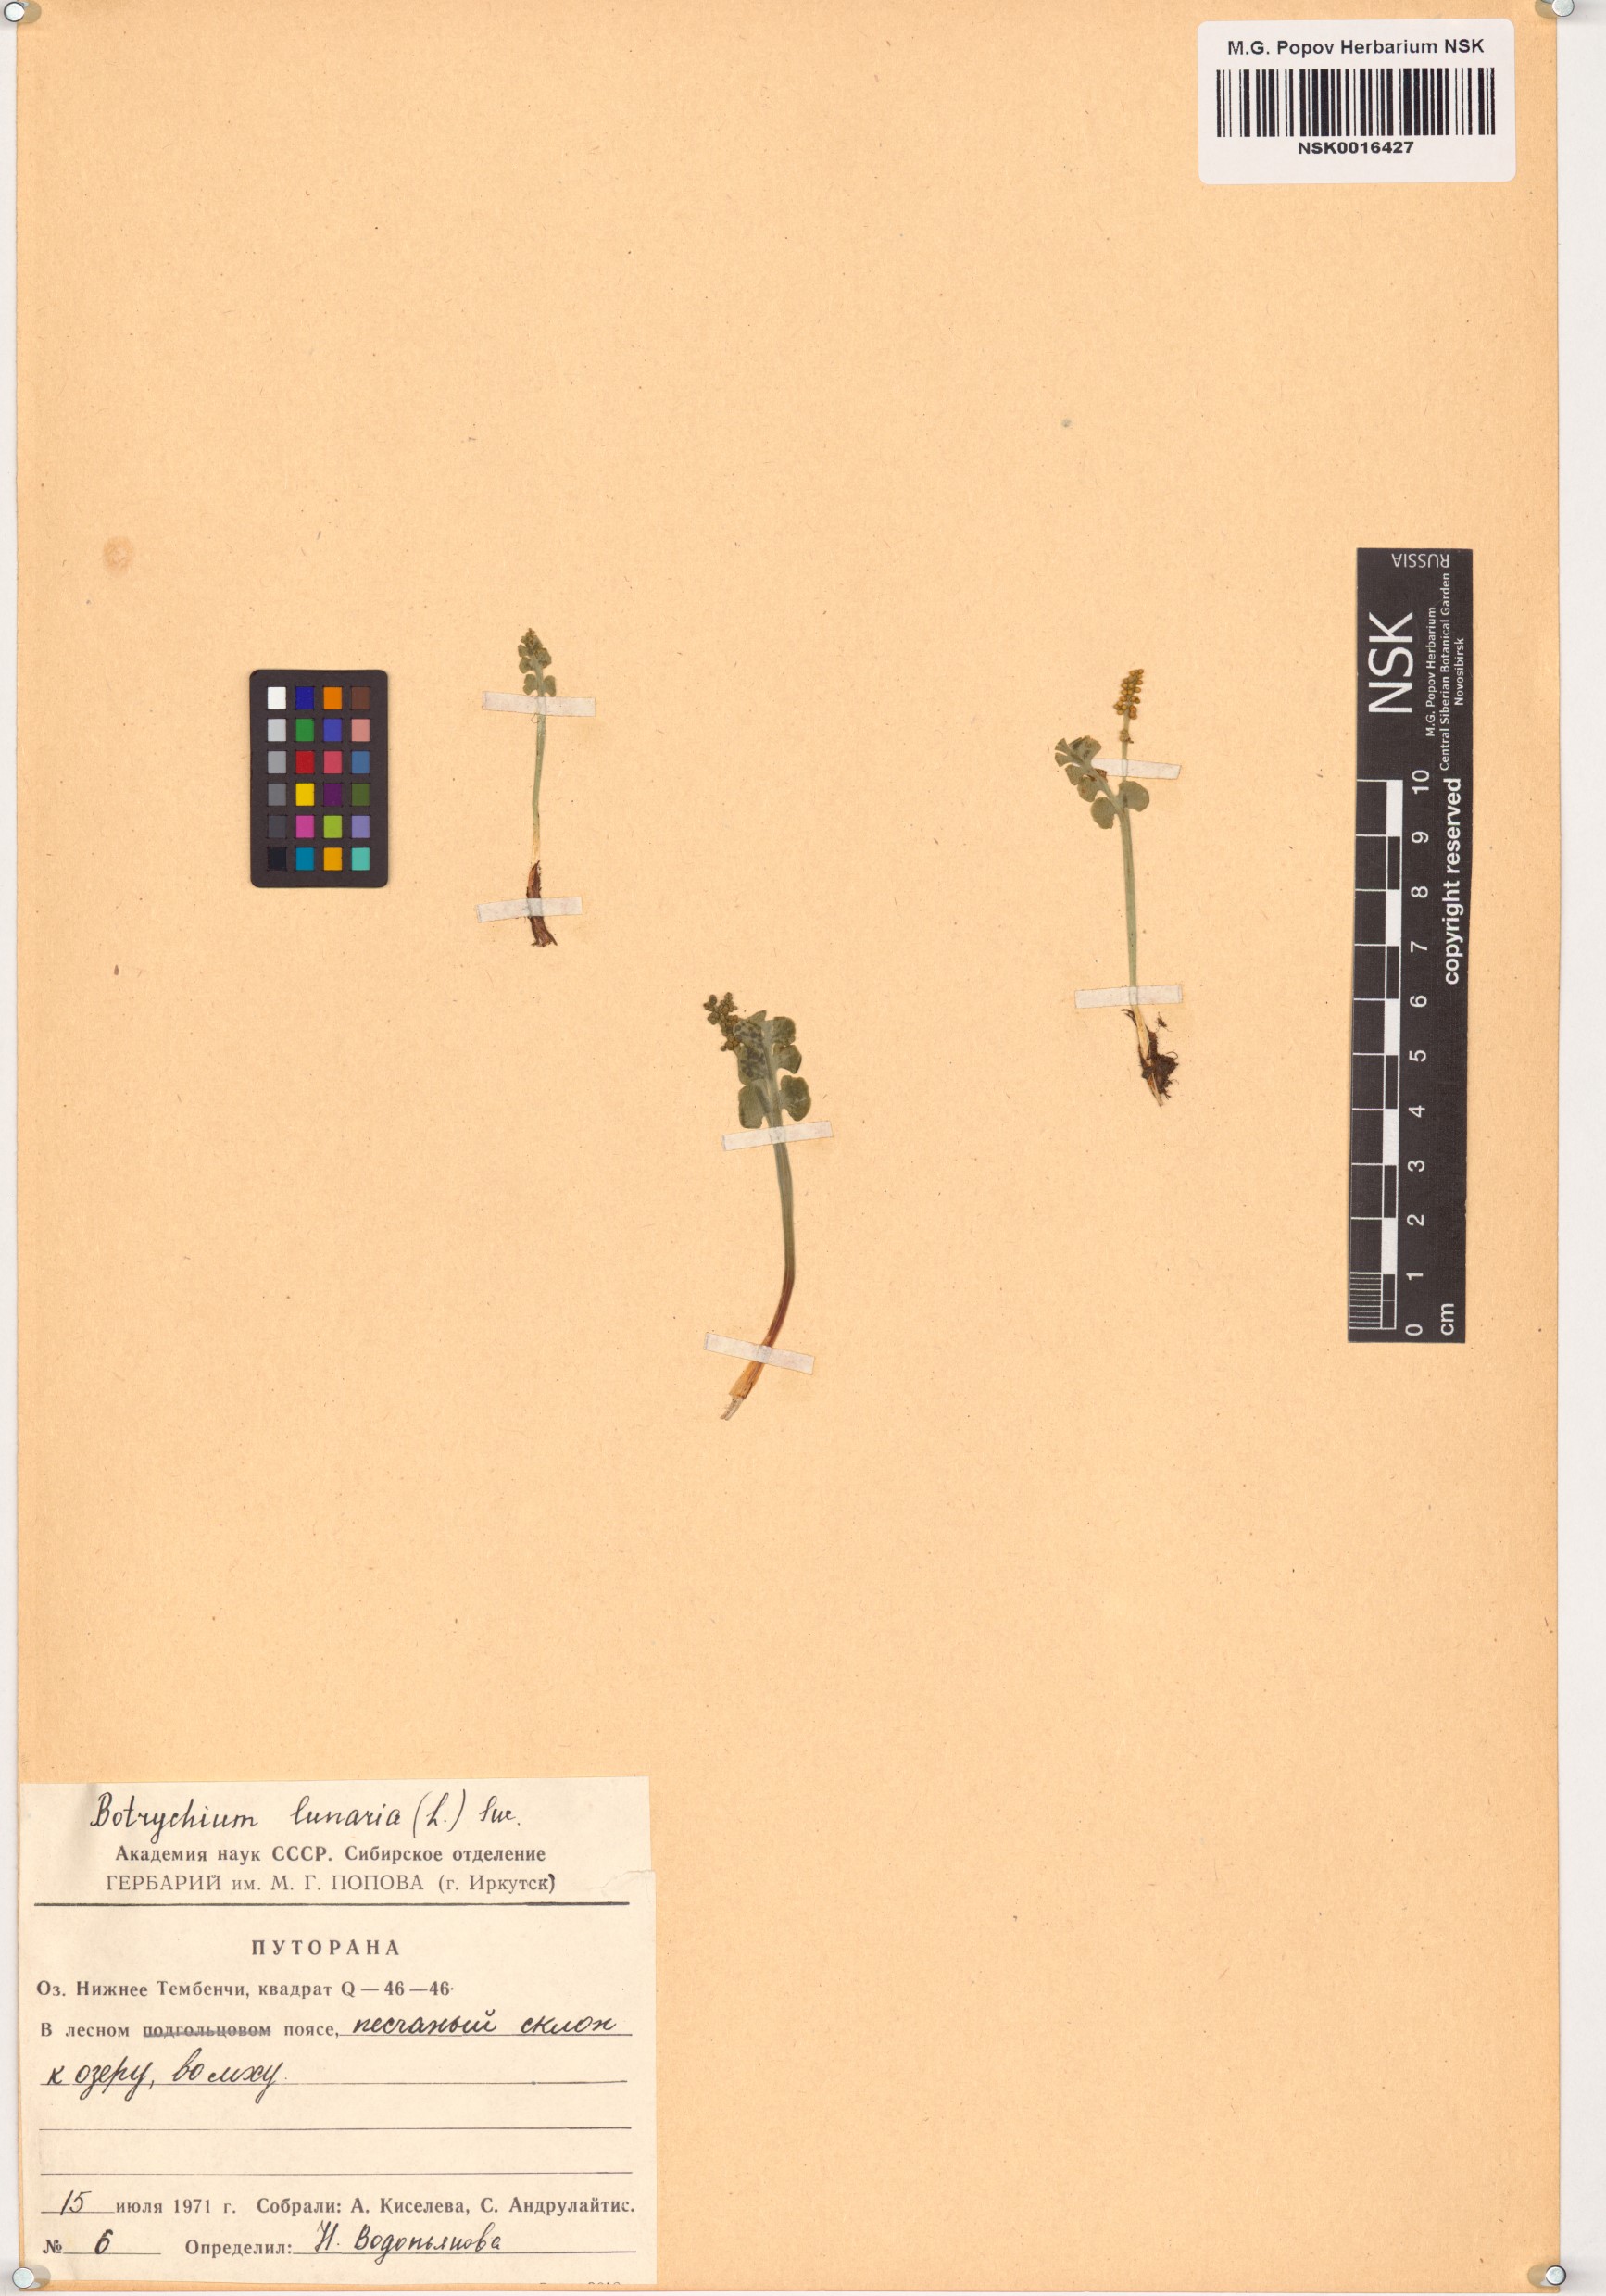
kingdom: Plantae
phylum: Tracheophyta
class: Polypodiopsida
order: Ophioglossales
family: Ophioglossaceae
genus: Botrychium
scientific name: Botrychium lunaria
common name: Moonwort
